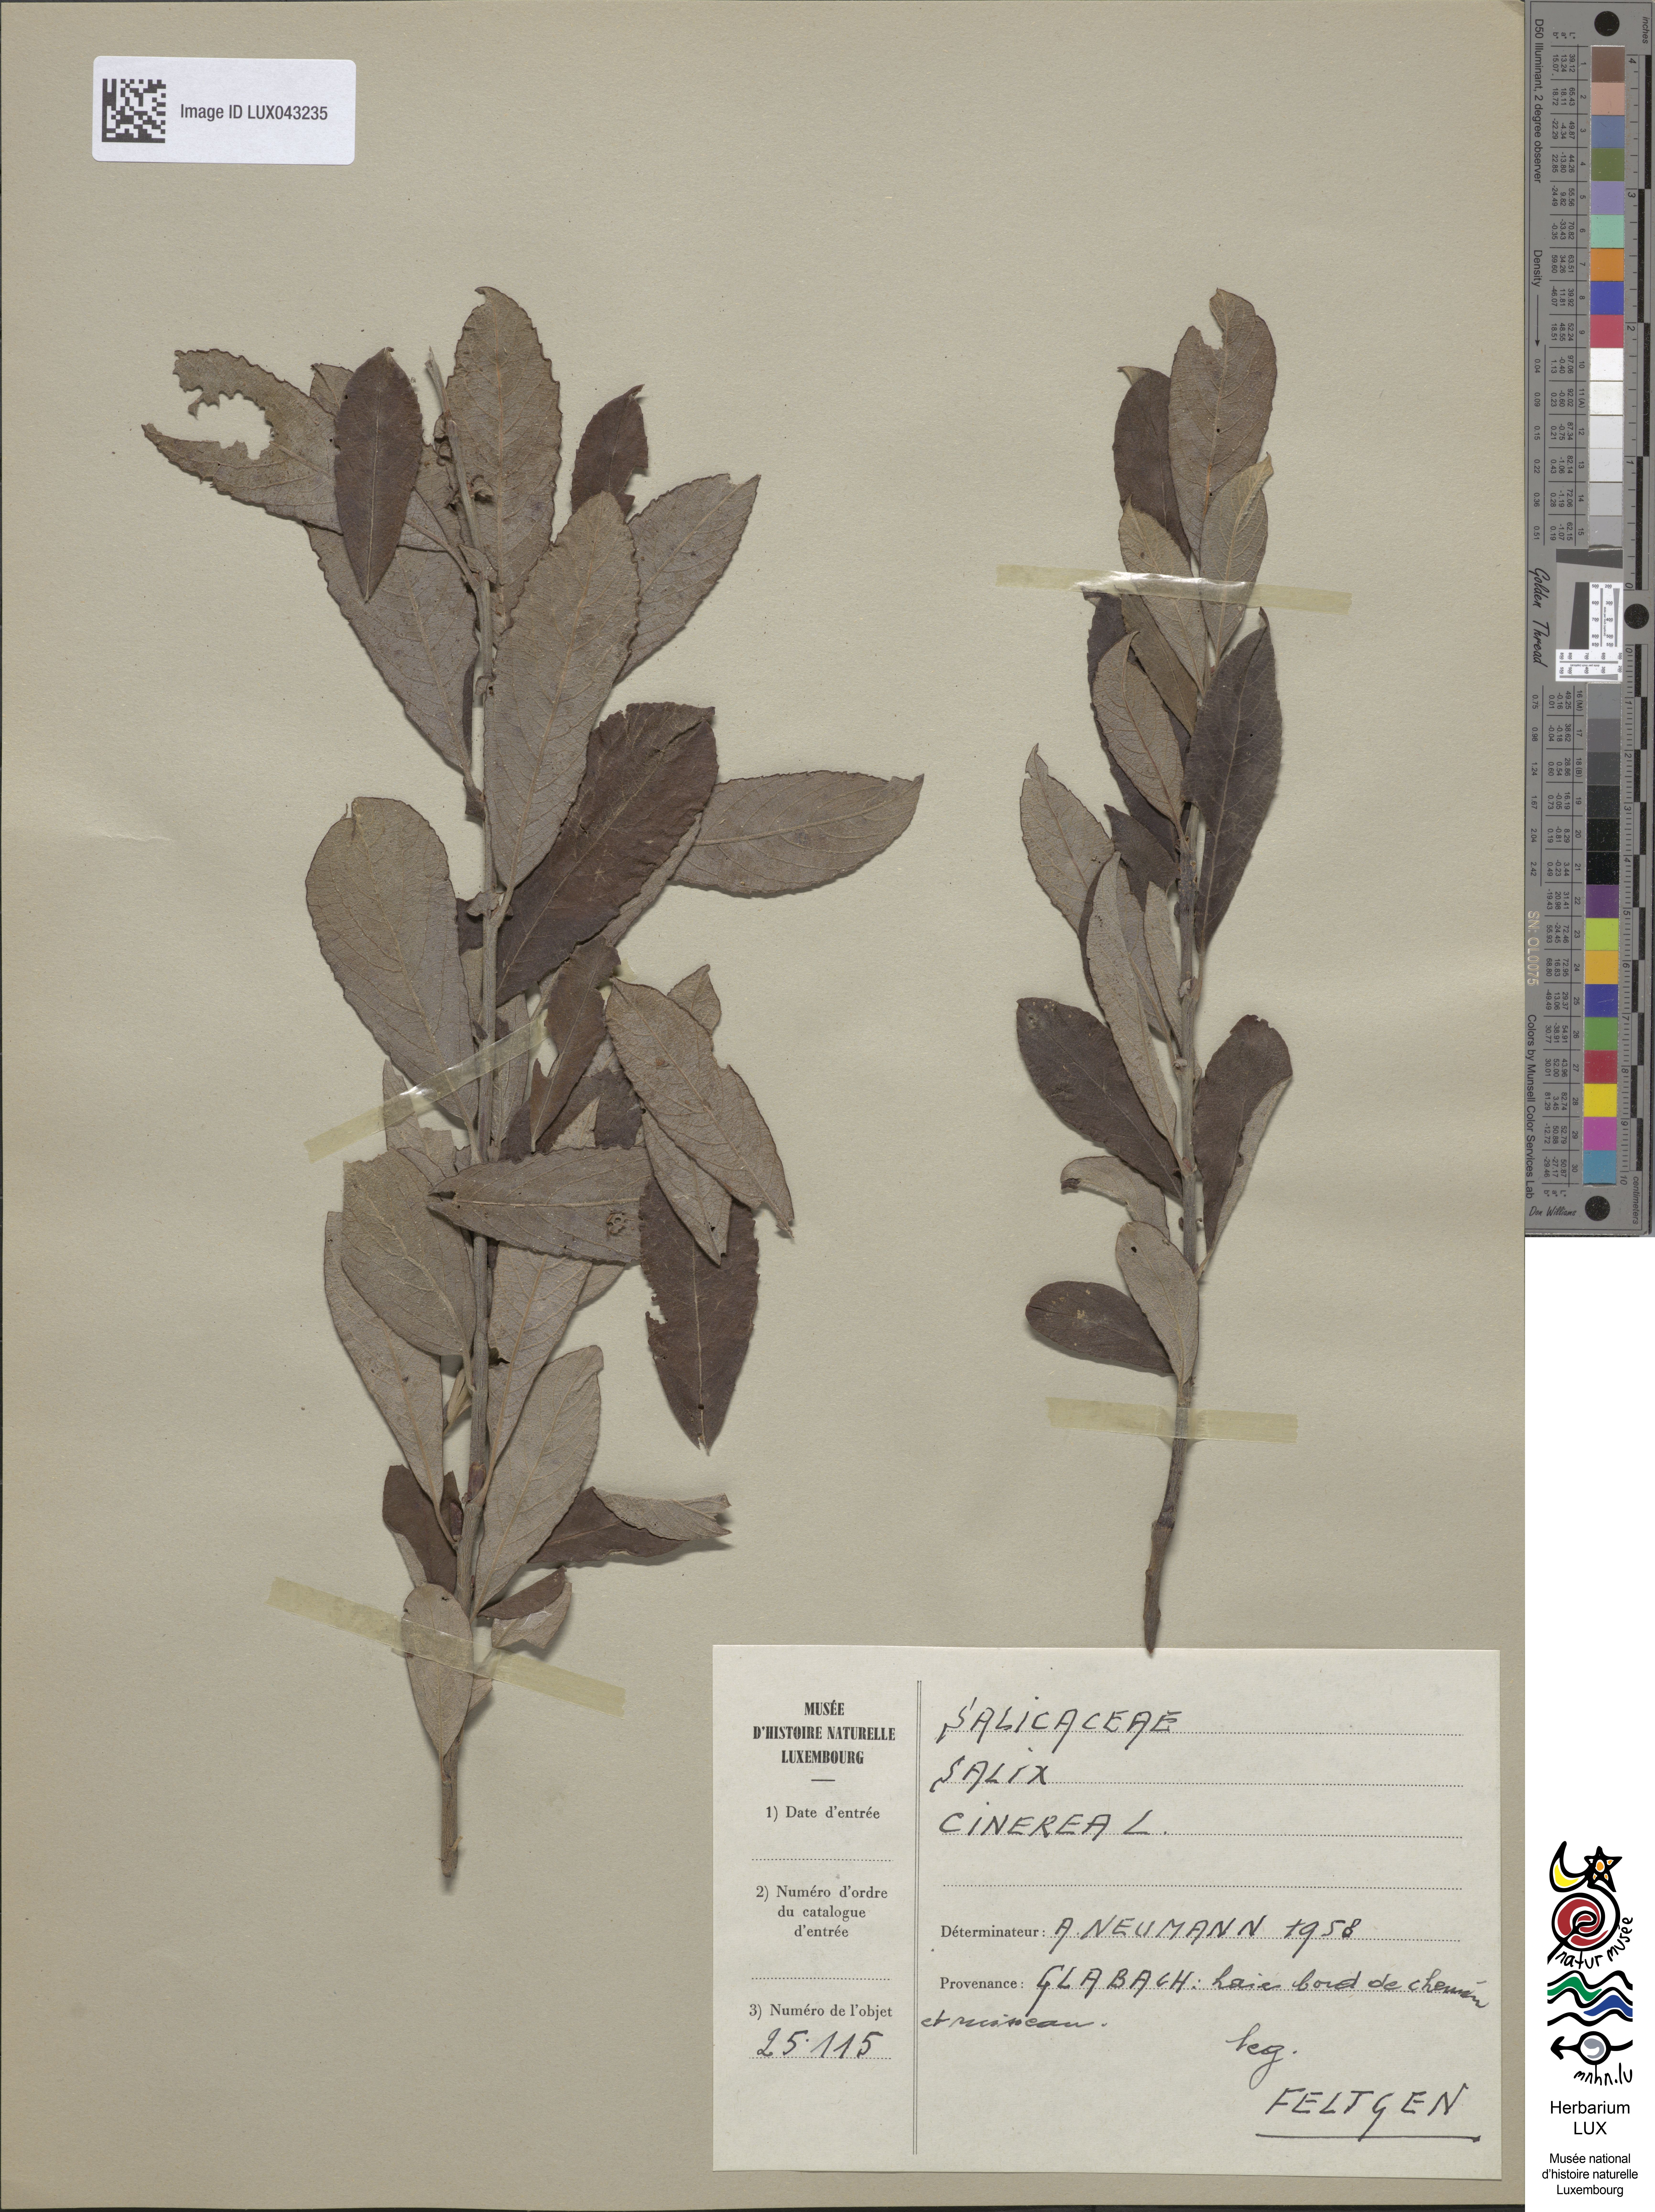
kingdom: Plantae
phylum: Tracheophyta
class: Magnoliopsida
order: Malpighiales
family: Salicaceae
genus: Salix
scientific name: Salix cinerea
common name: Common sallow
